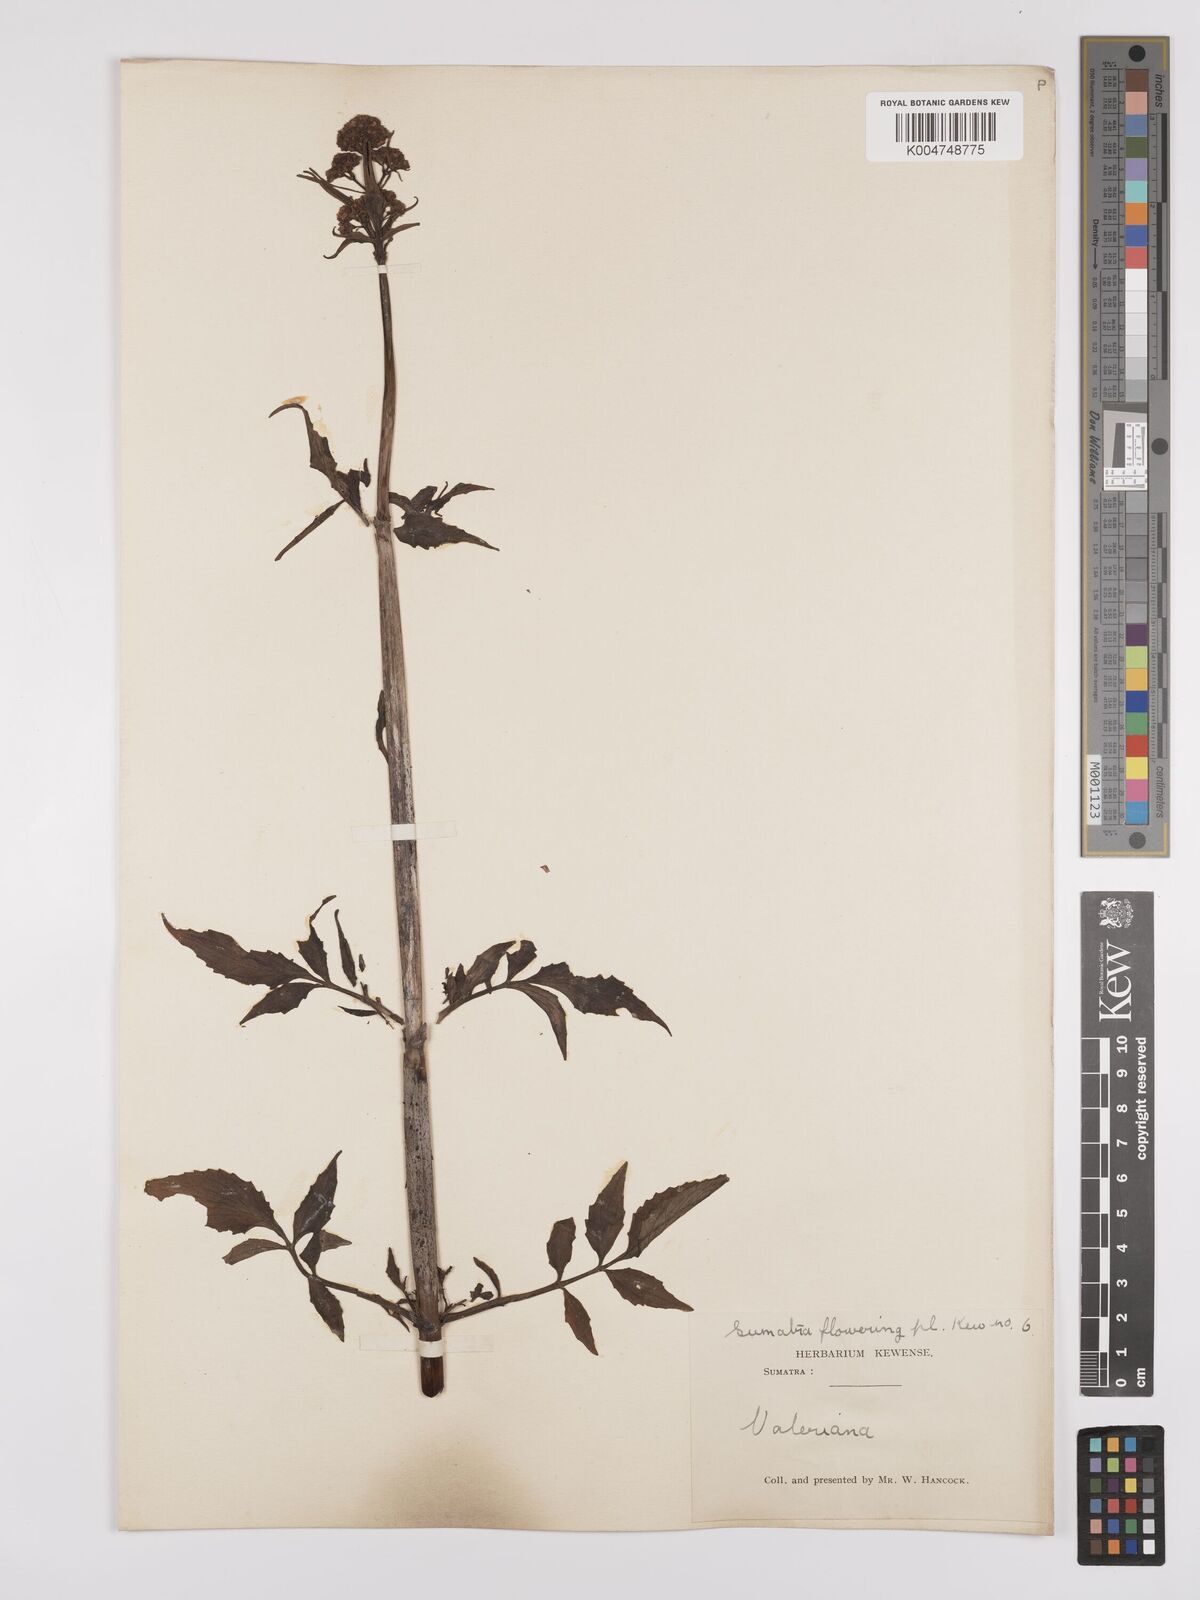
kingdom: Plantae
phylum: Tracheophyta
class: Magnoliopsida
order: Dipsacales
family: Caprifoliaceae
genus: Valeriana
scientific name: Valeriana hardwickei
